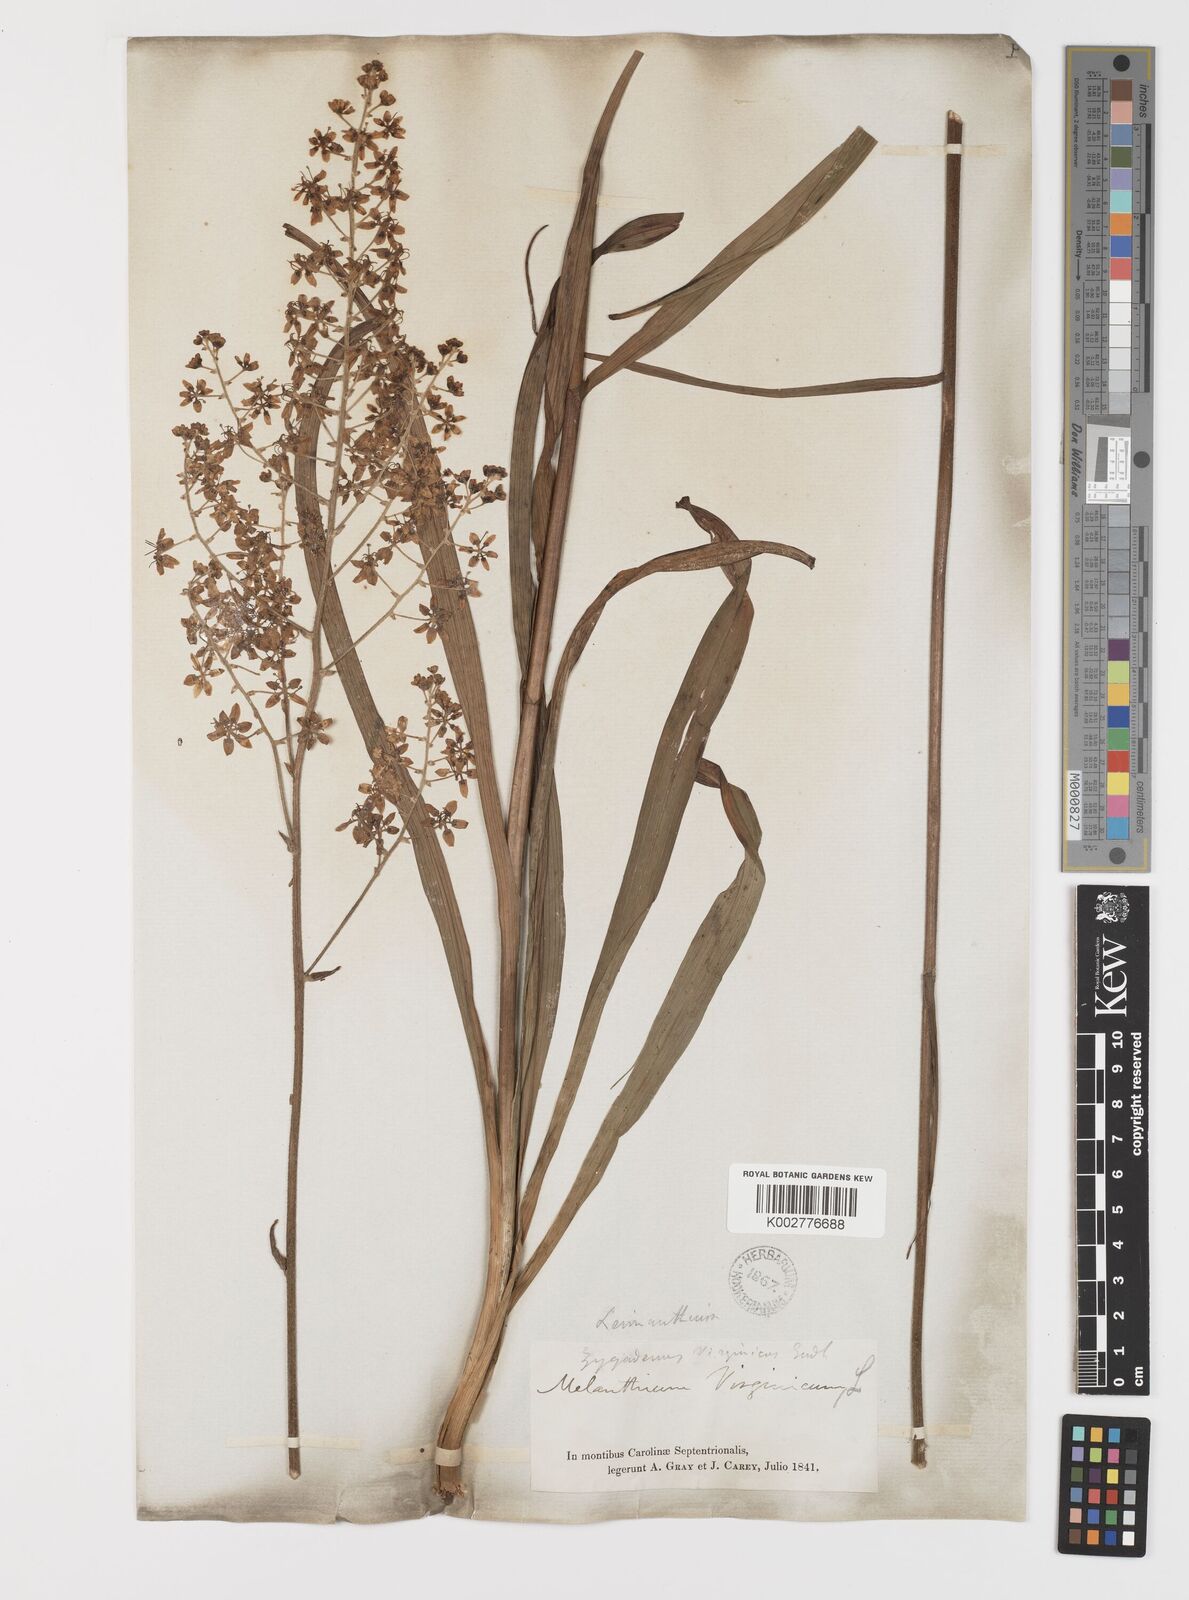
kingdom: Plantae
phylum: Tracheophyta
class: Liliopsida
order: Liliales
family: Melanthiaceae
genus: Melanthium
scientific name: Melanthium virginicum
